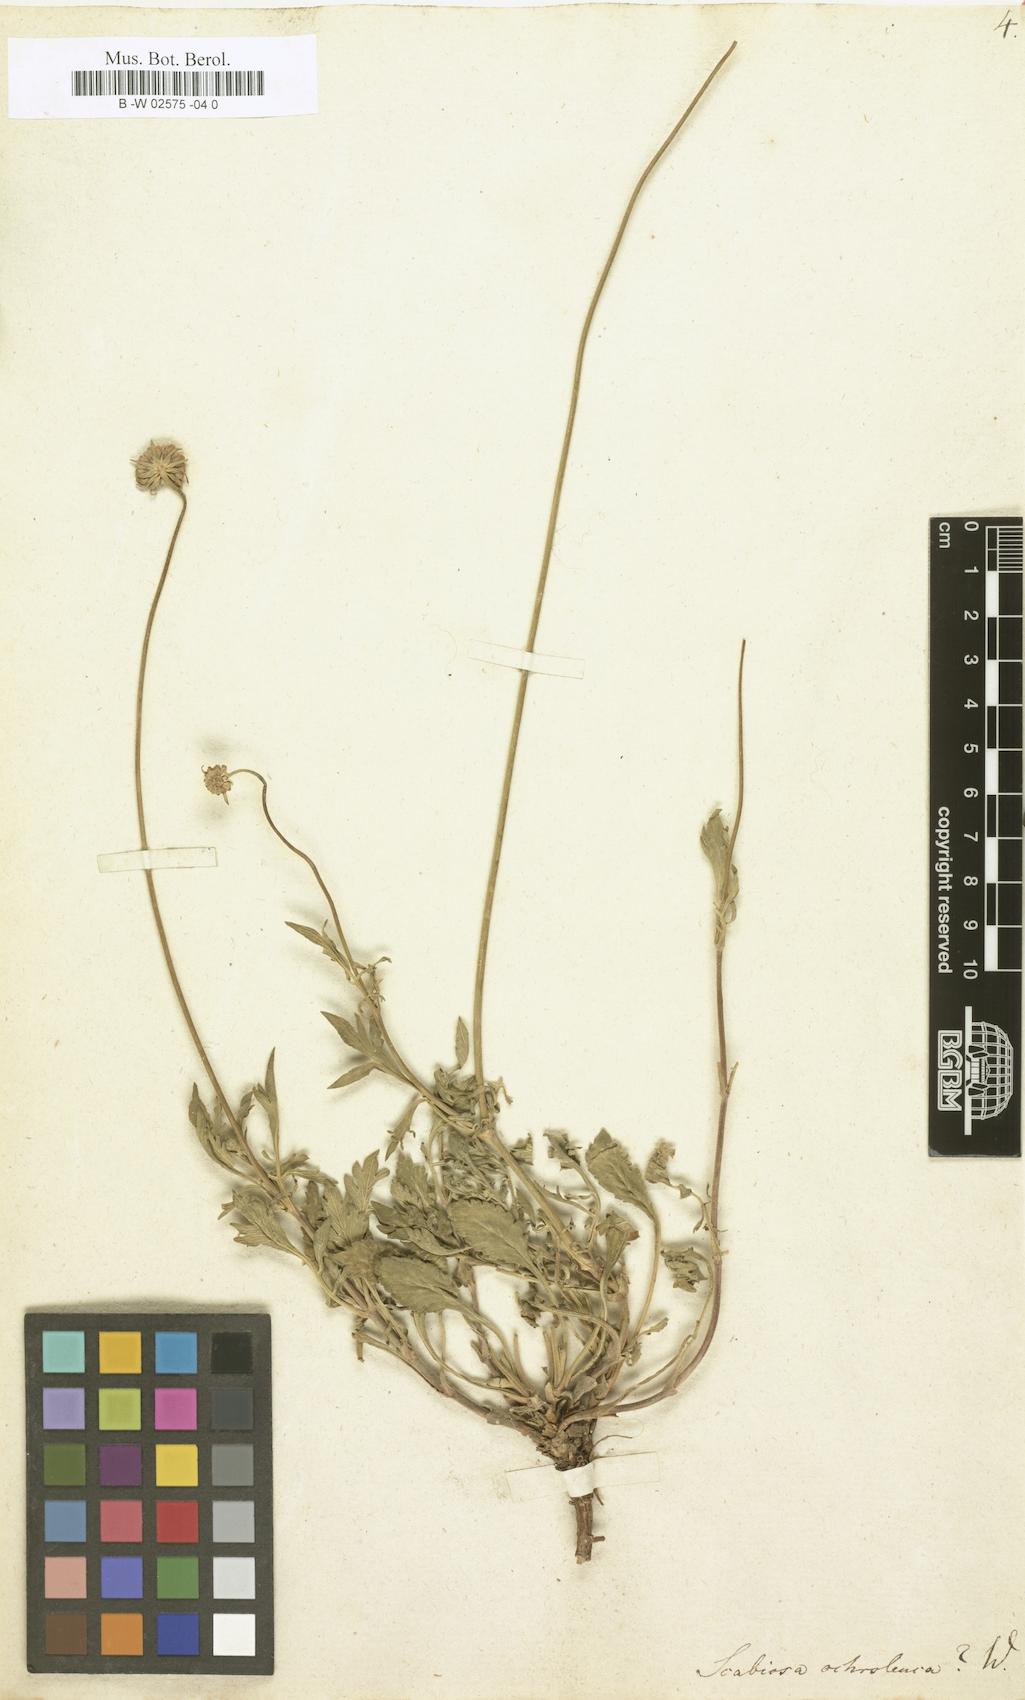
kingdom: Plantae
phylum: Tracheophyta
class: Magnoliopsida
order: Dipsacales
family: Caprifoliaceae
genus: Scabiosa
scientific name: Scabiosa ochroleuca
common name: Cream pincushions
